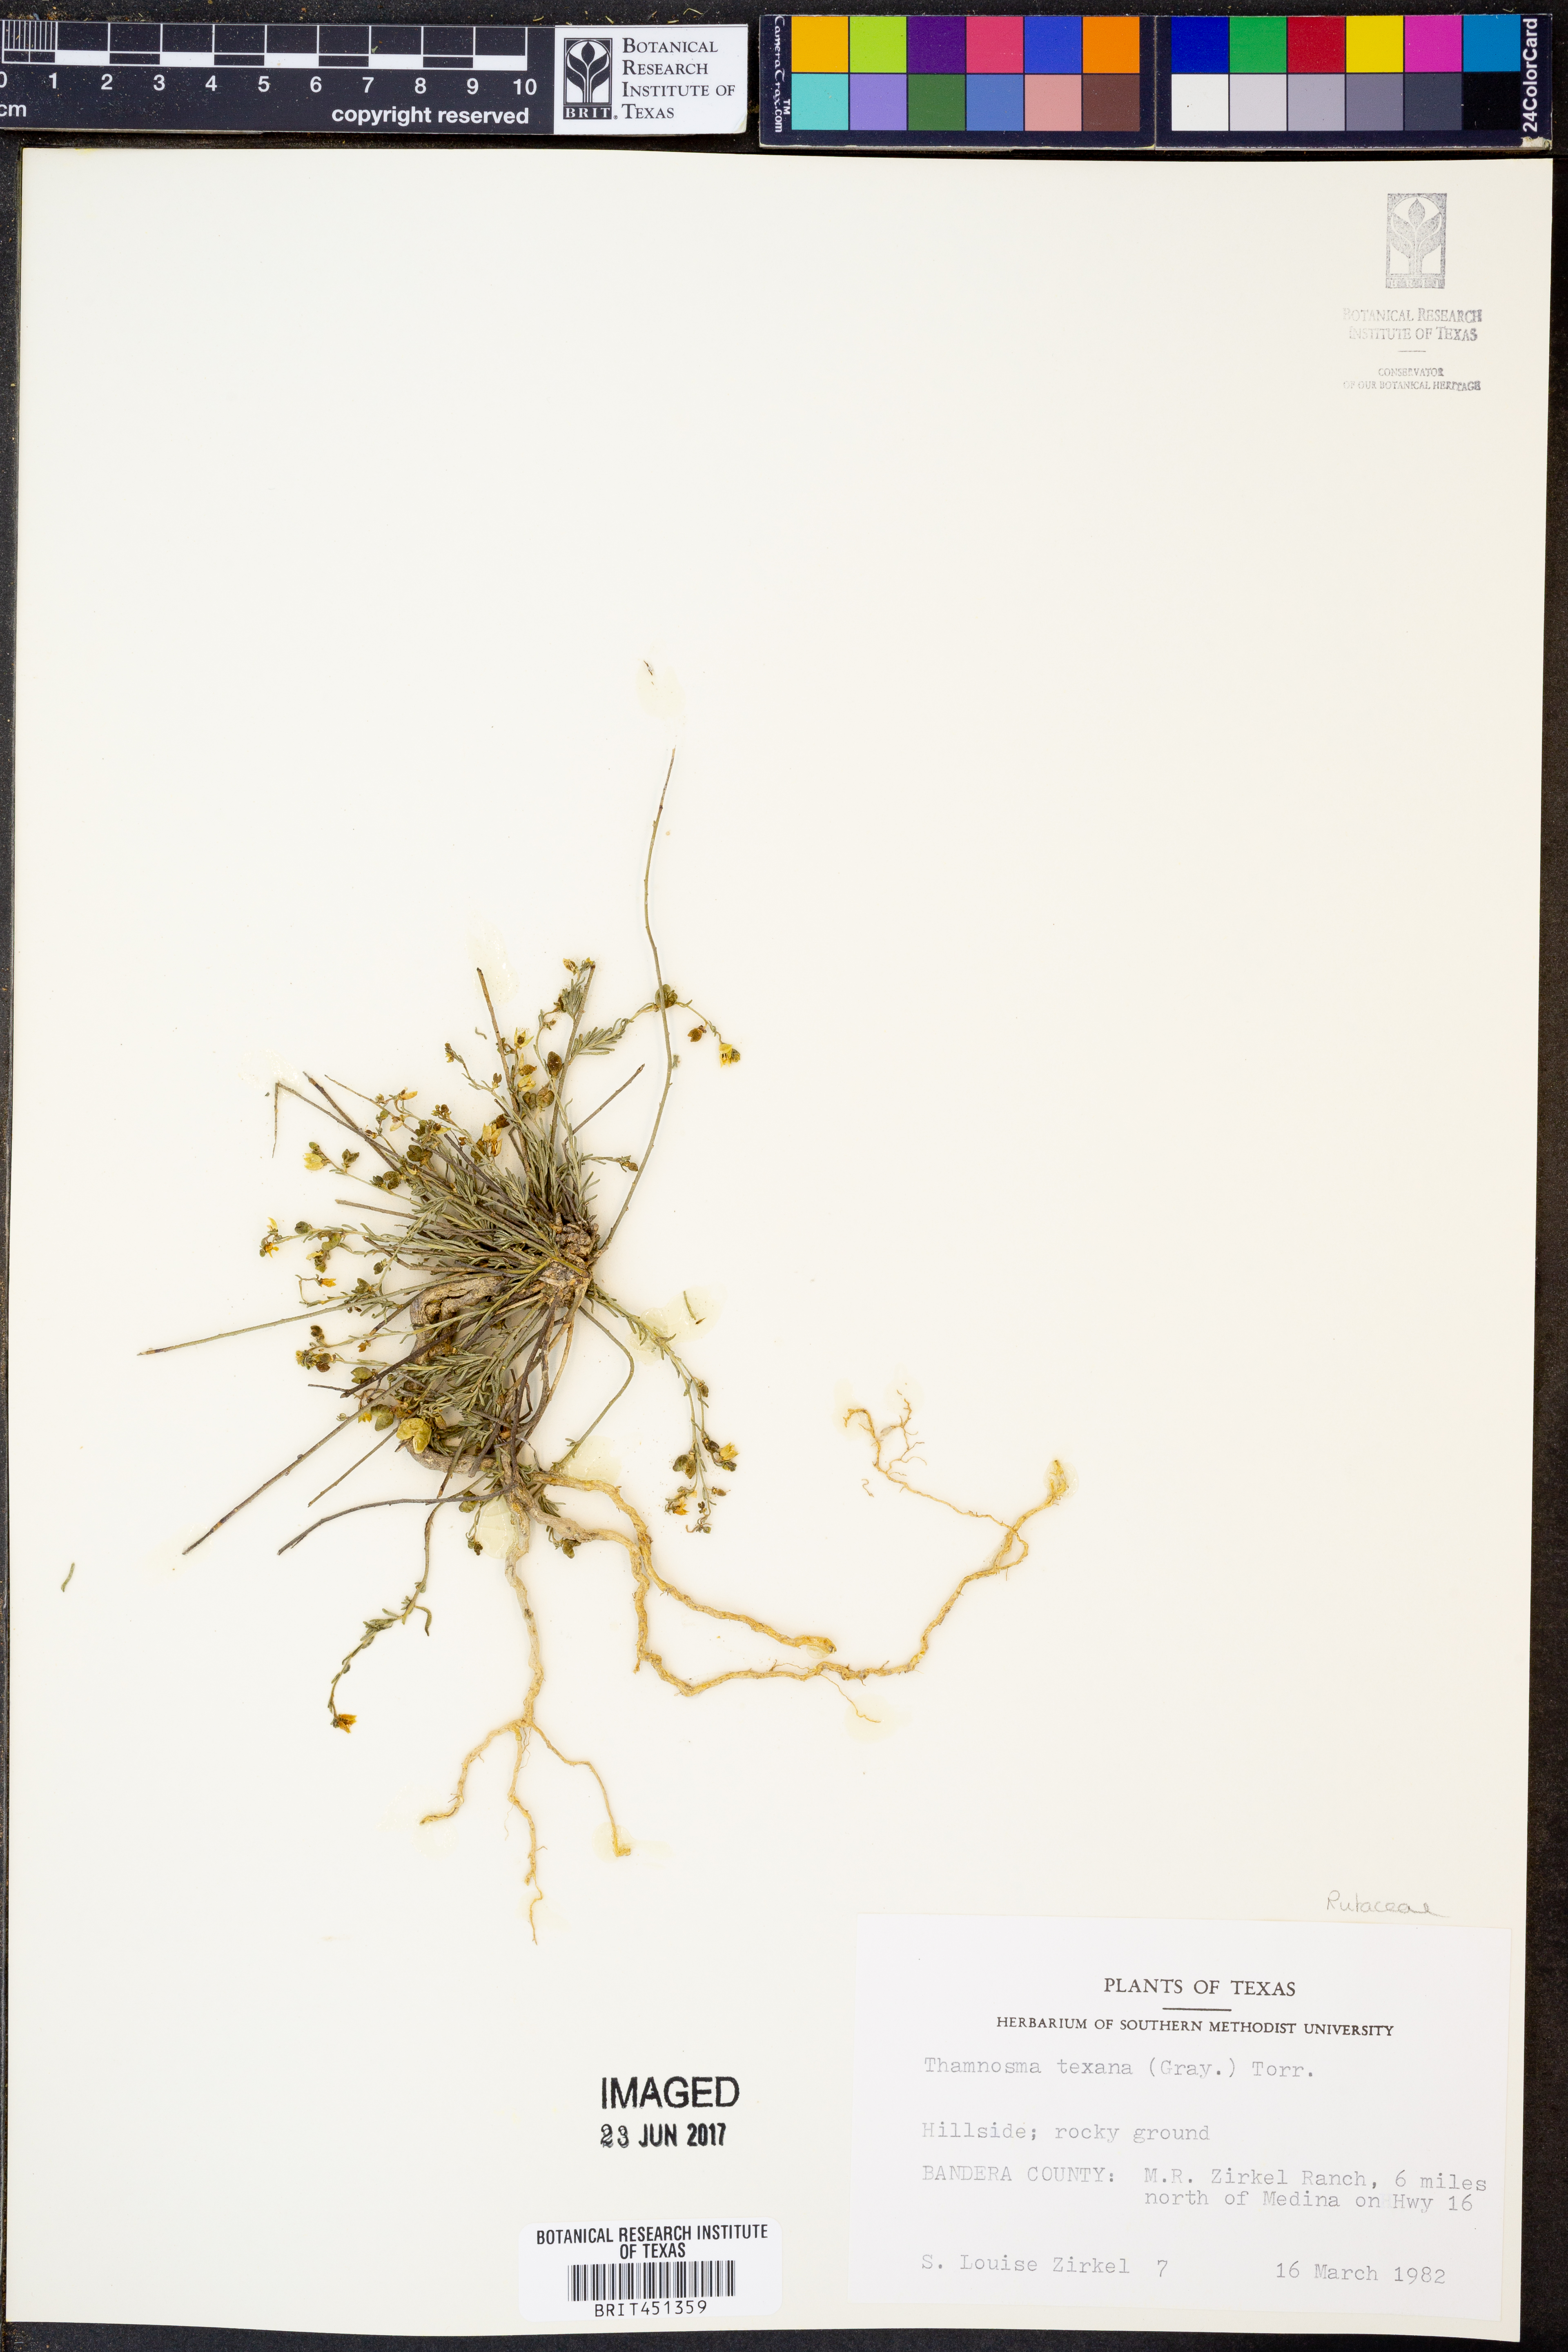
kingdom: Plantae
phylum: Tracheophyta
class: Magnoliopsida
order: Sapindales
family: Rutaceae
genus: Thamnosma
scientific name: Thamnosma texana
